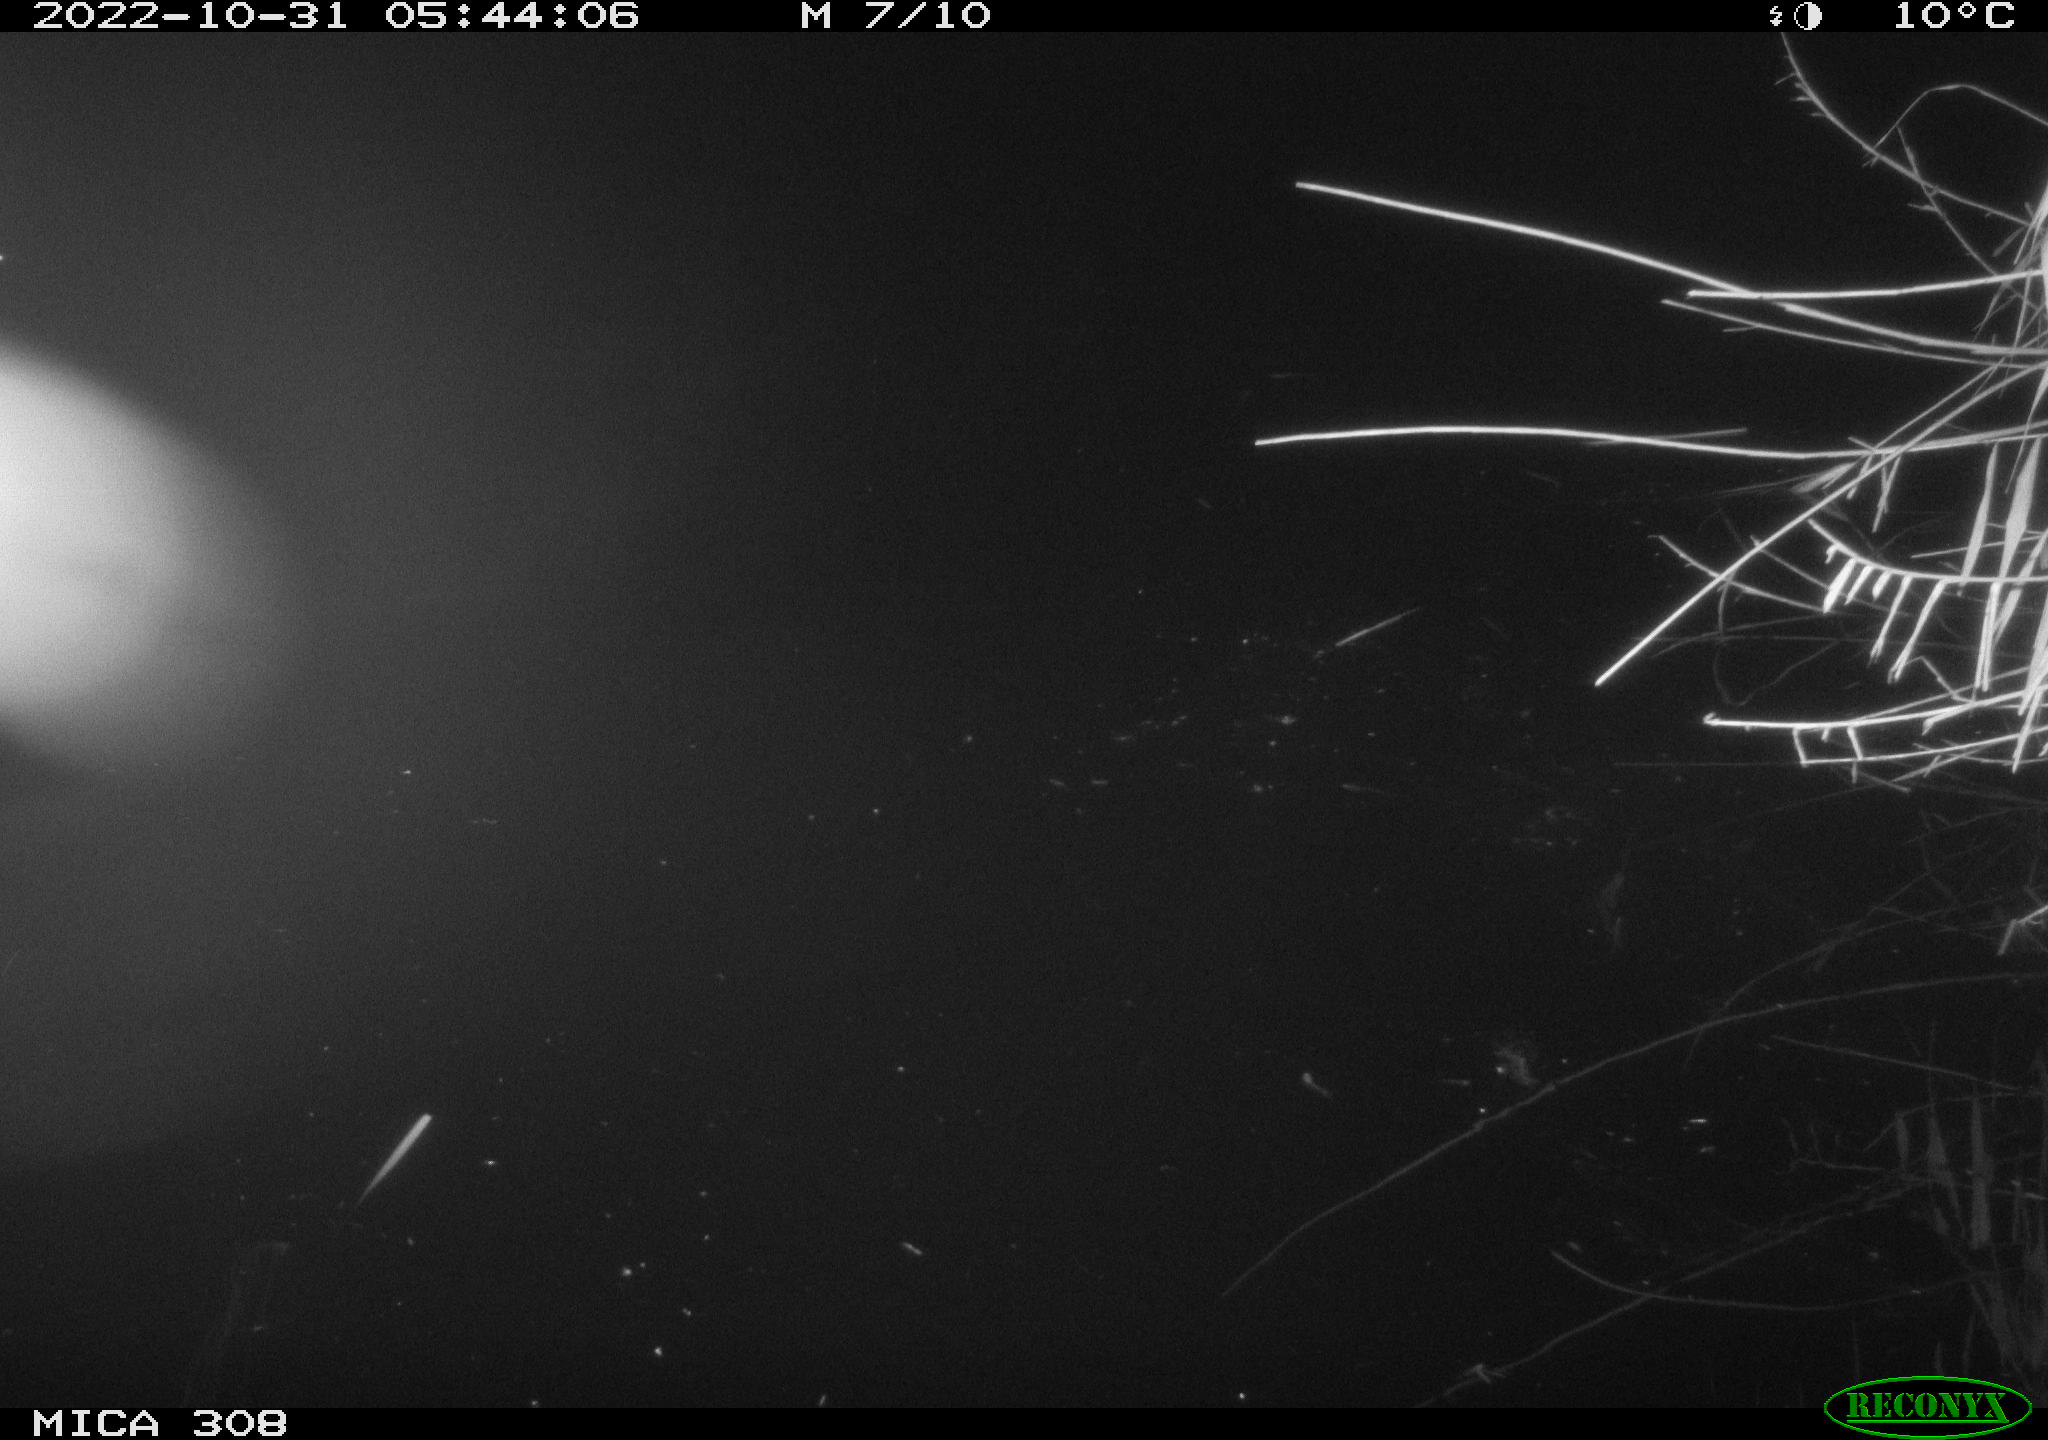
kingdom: Animalia
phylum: Chordata
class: Mammalia
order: Rodentia
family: Muridae
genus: Rattus
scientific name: Rattus norvegicus
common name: Brown rat
